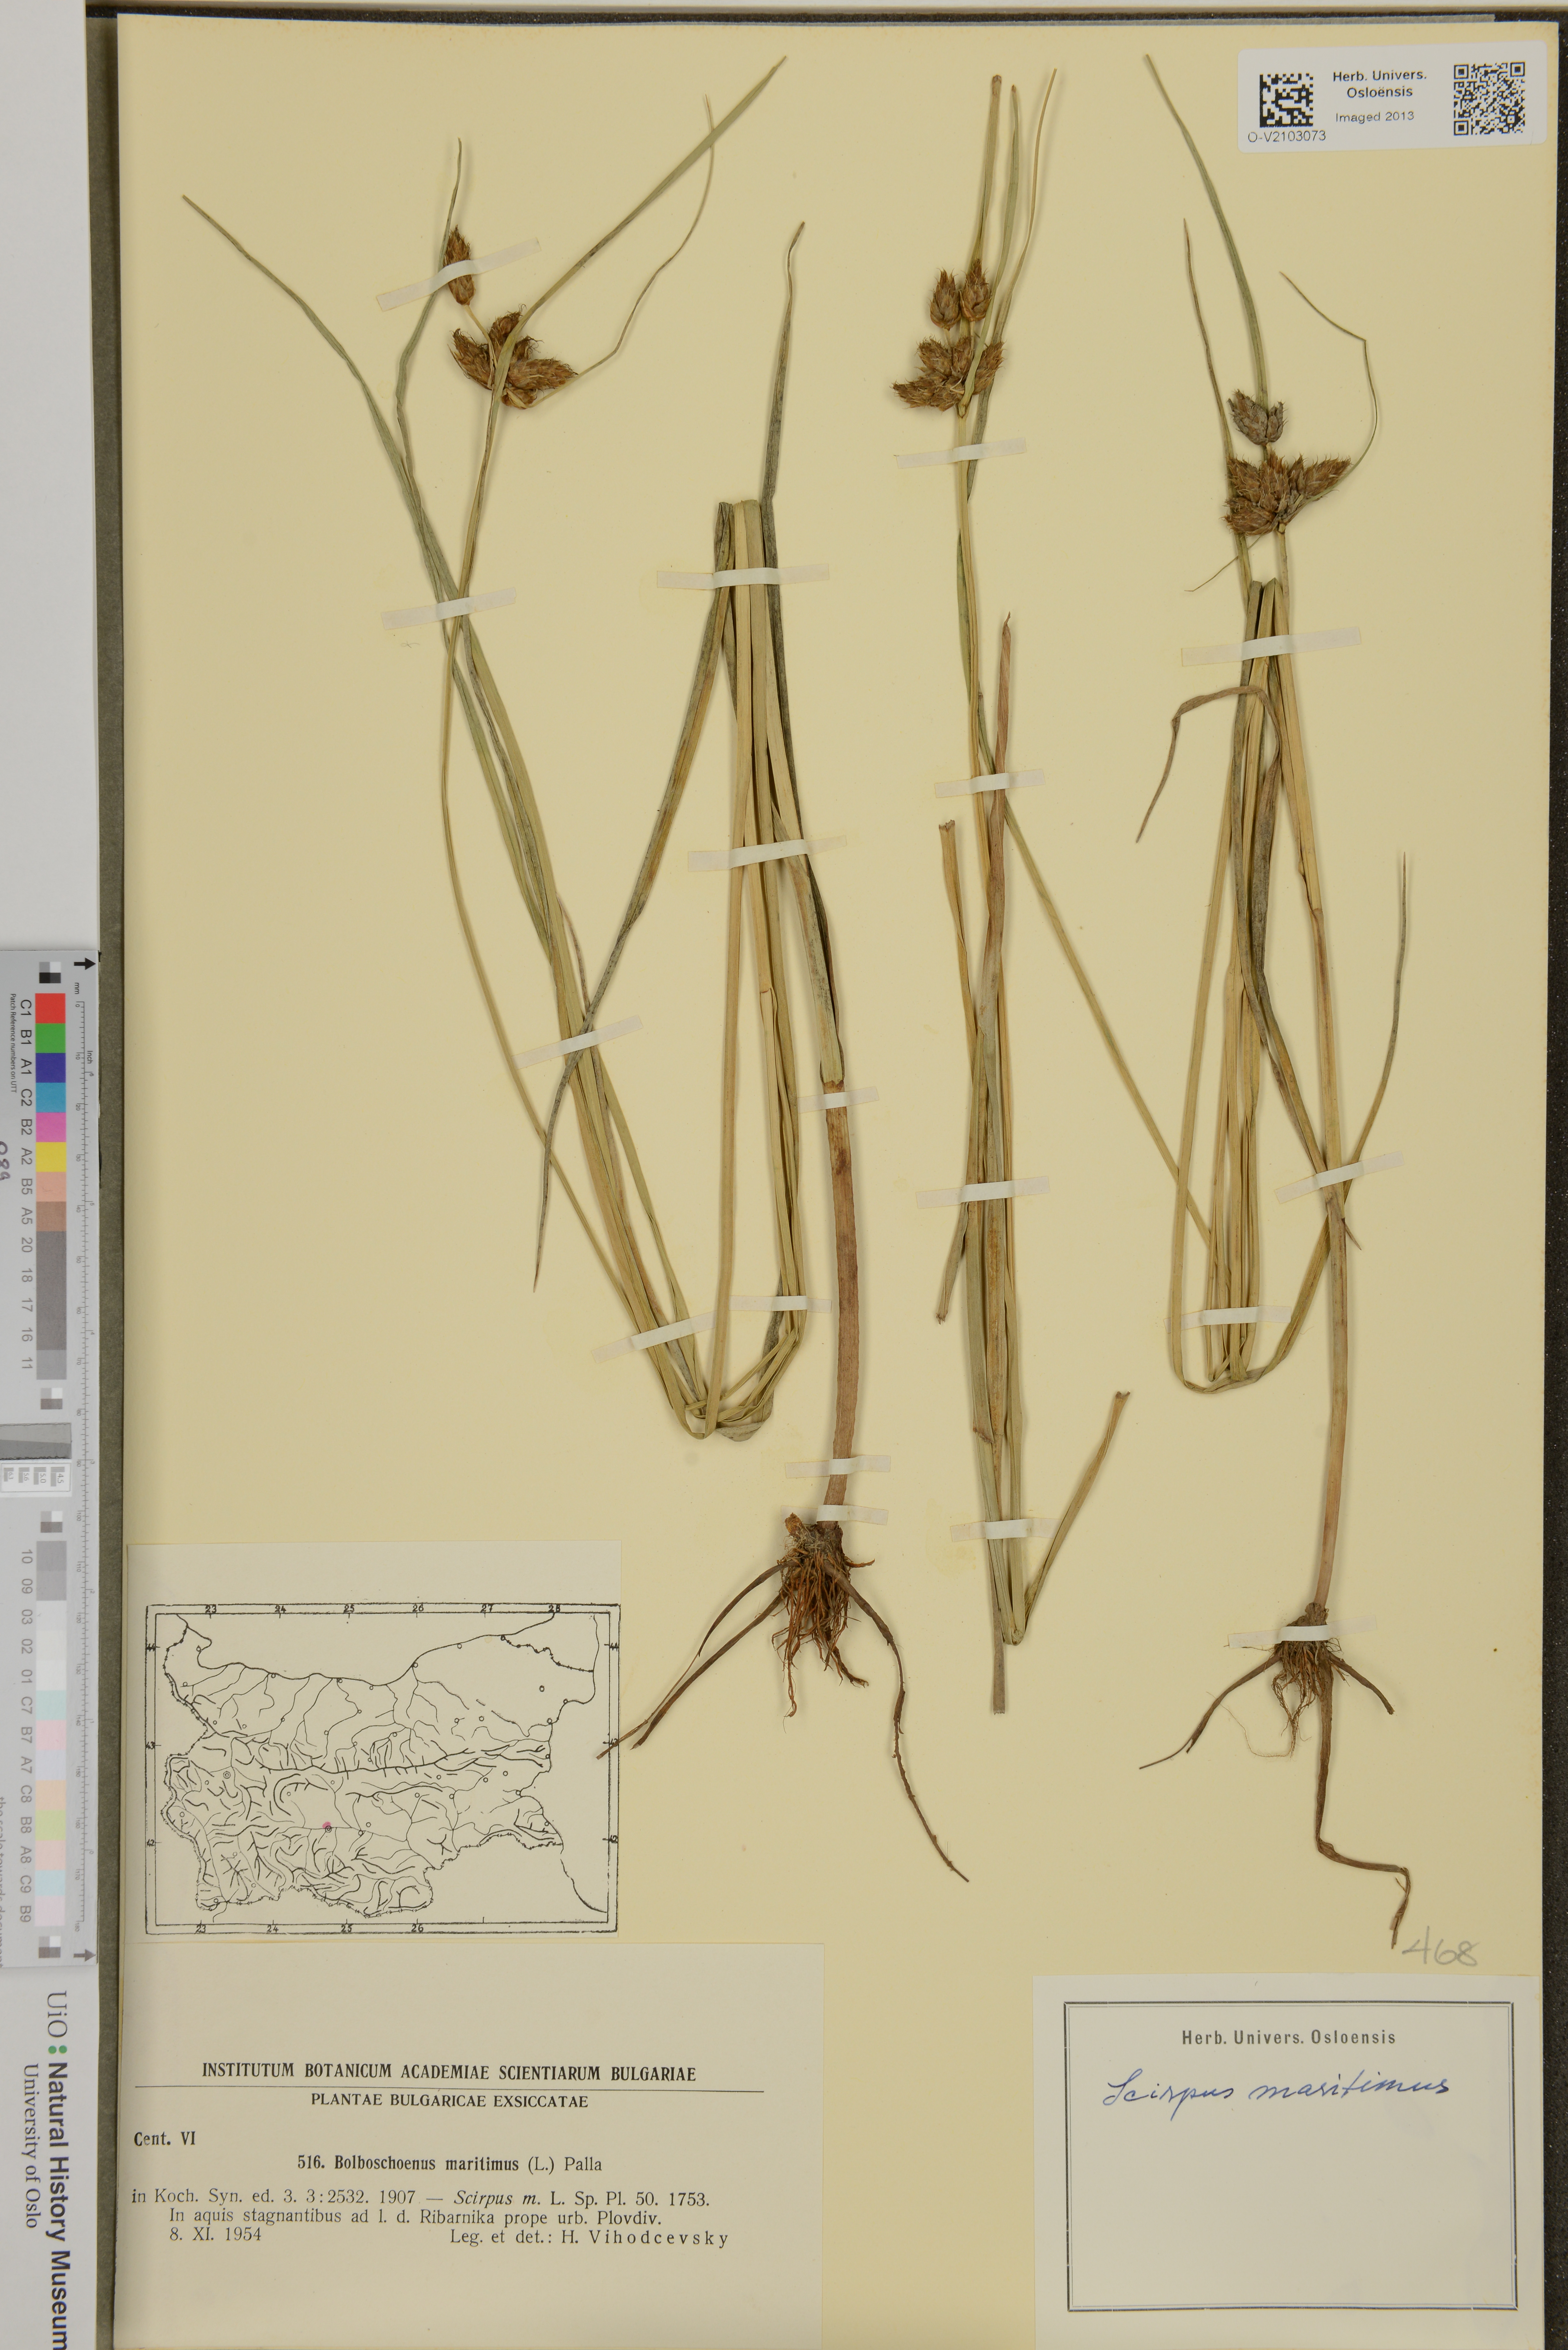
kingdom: Plantae
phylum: Tracheophyta
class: Liliopsida
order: Poales
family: Cyperaceae
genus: Bolboschoenus
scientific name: Bolboschoenus maritimus
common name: Sea club-rush
